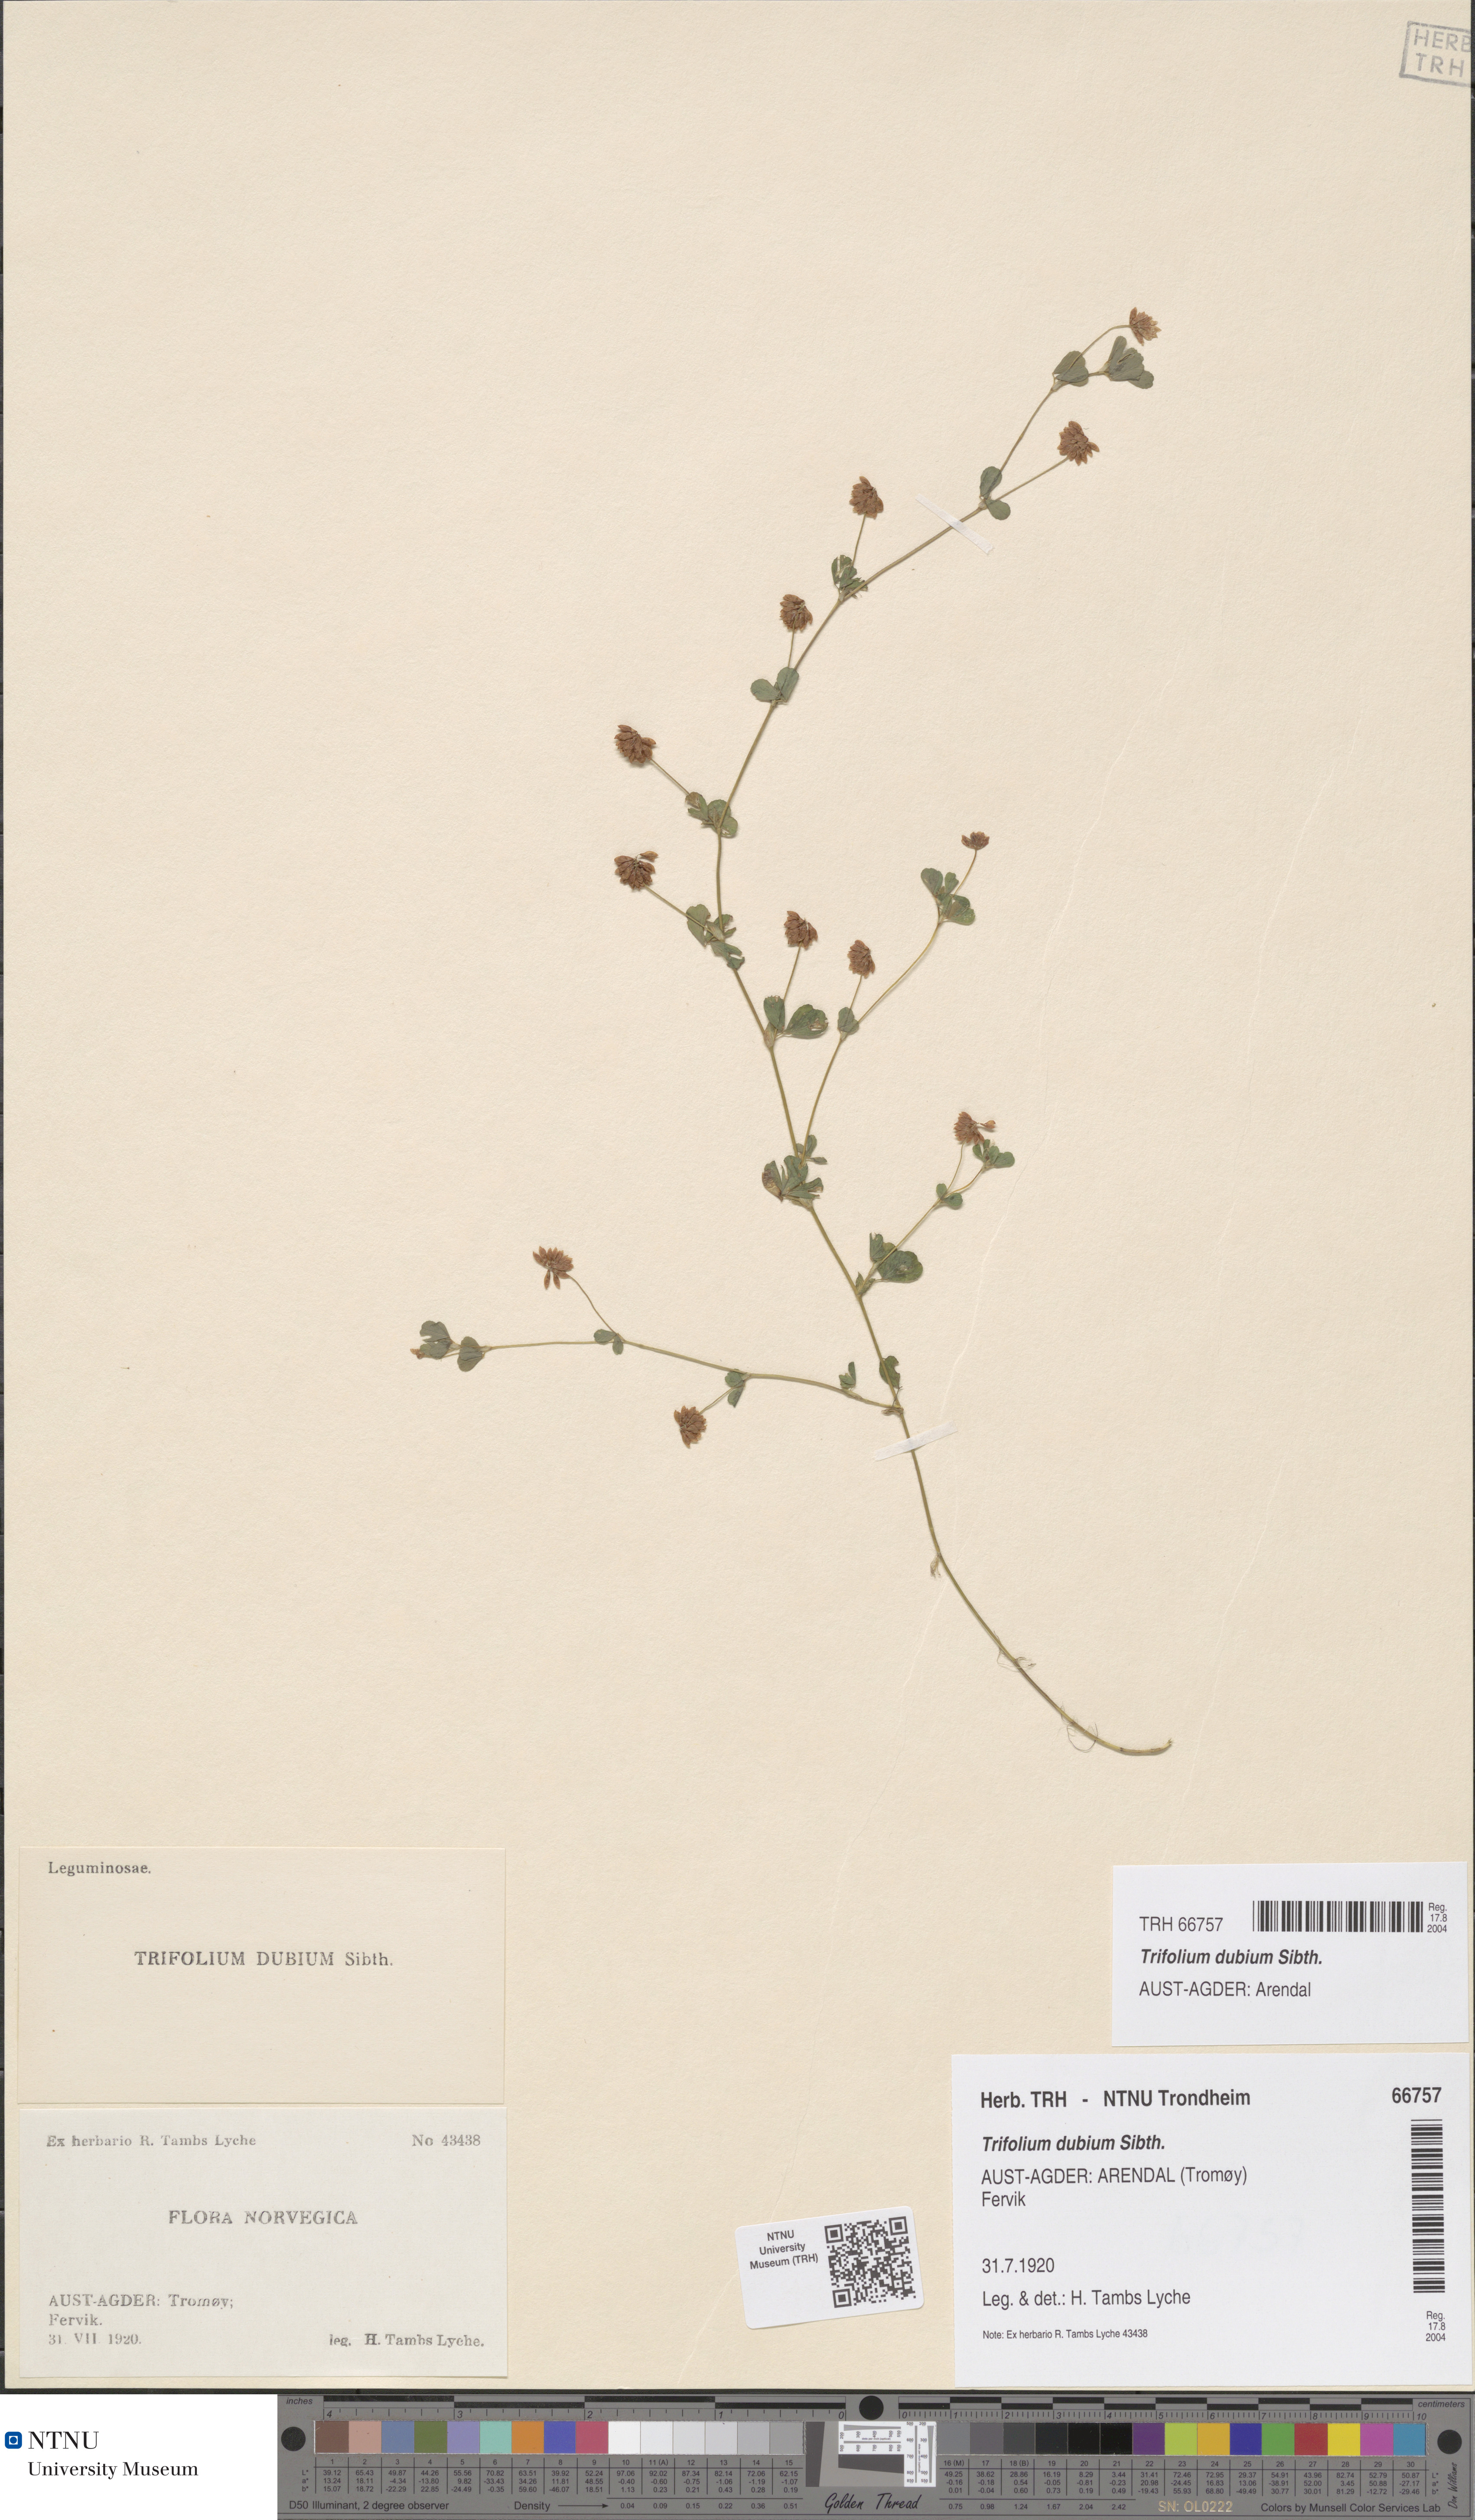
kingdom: Plantae
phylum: Tracheophyta
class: Magnoliopsida
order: Fabales
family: Fabaceae
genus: Trifolium
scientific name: Trifolium dubium
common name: Suckling clover
